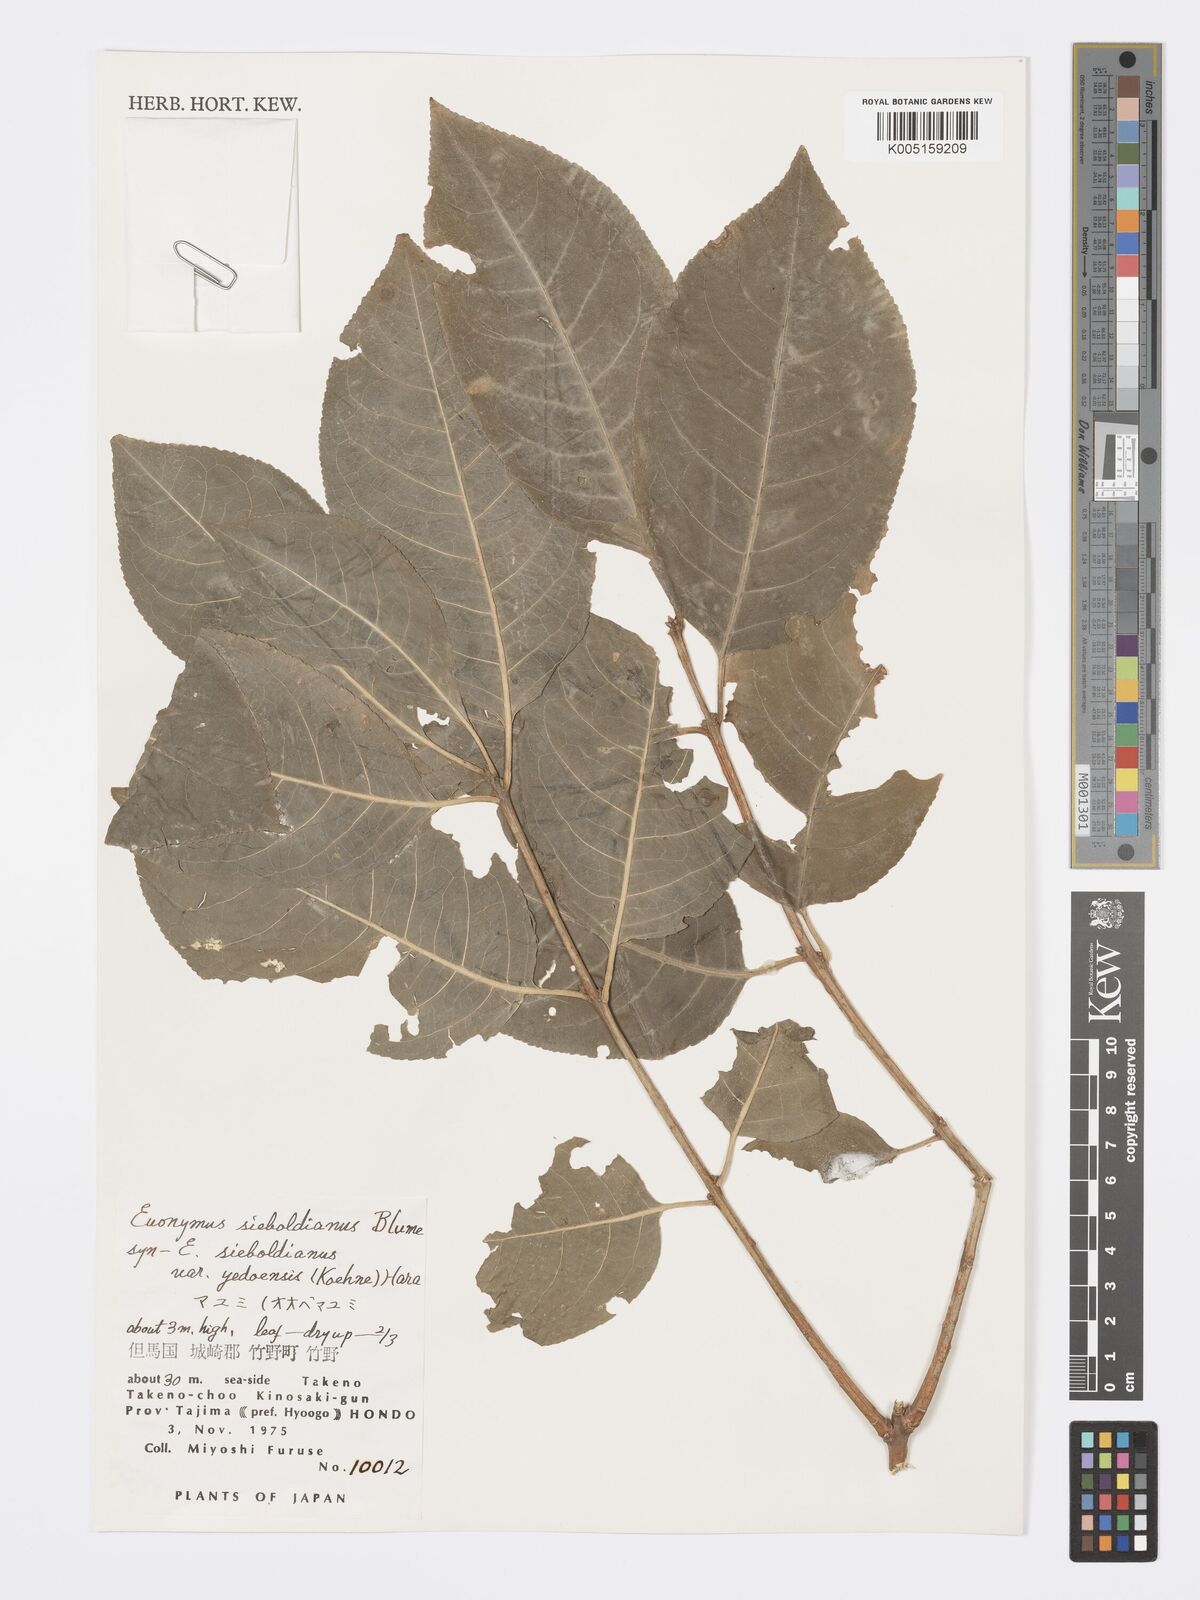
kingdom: Plantae
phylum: Tracheophyta
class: Magnoliopsida
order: Celastrales
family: Celastraceae
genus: Euonymus
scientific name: Euonymus hamiltonianus
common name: Hamilton's spindletree
